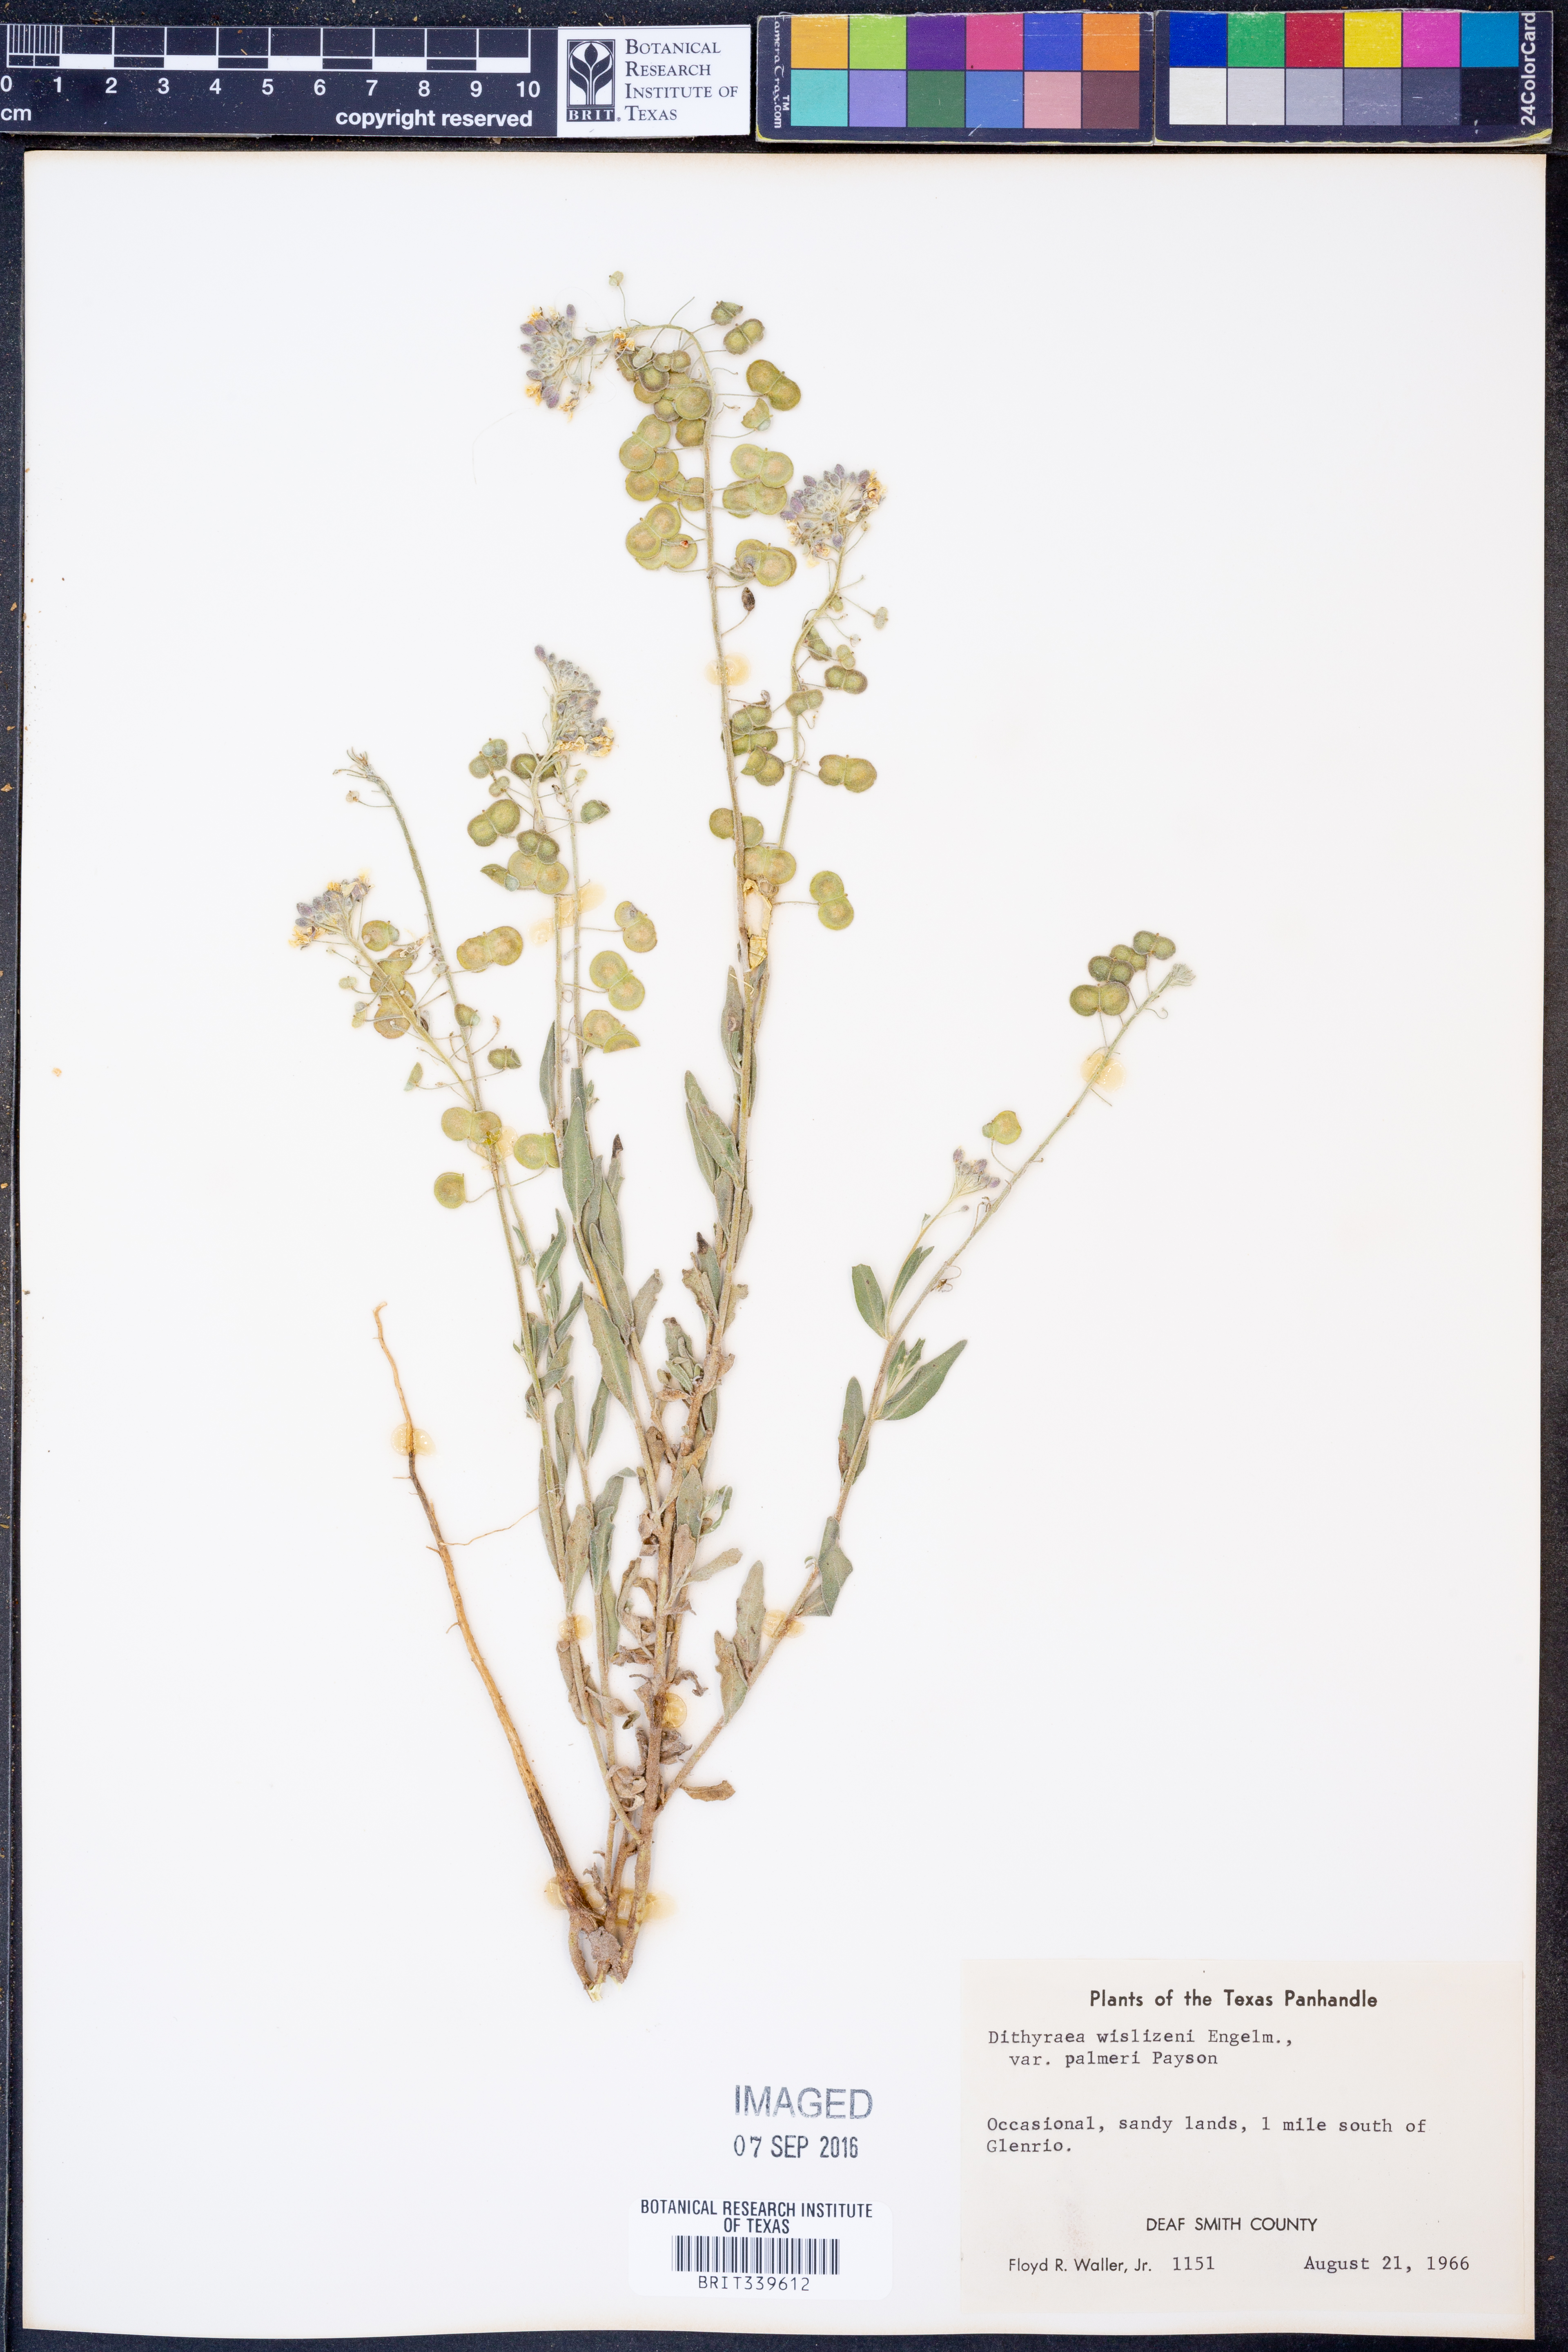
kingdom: Plantae
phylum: Tracheophyta
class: Magnoliopsida
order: Brassicales
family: Brassicaceae
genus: Dimorphocarpa
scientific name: Dimorphocarpa candicans
